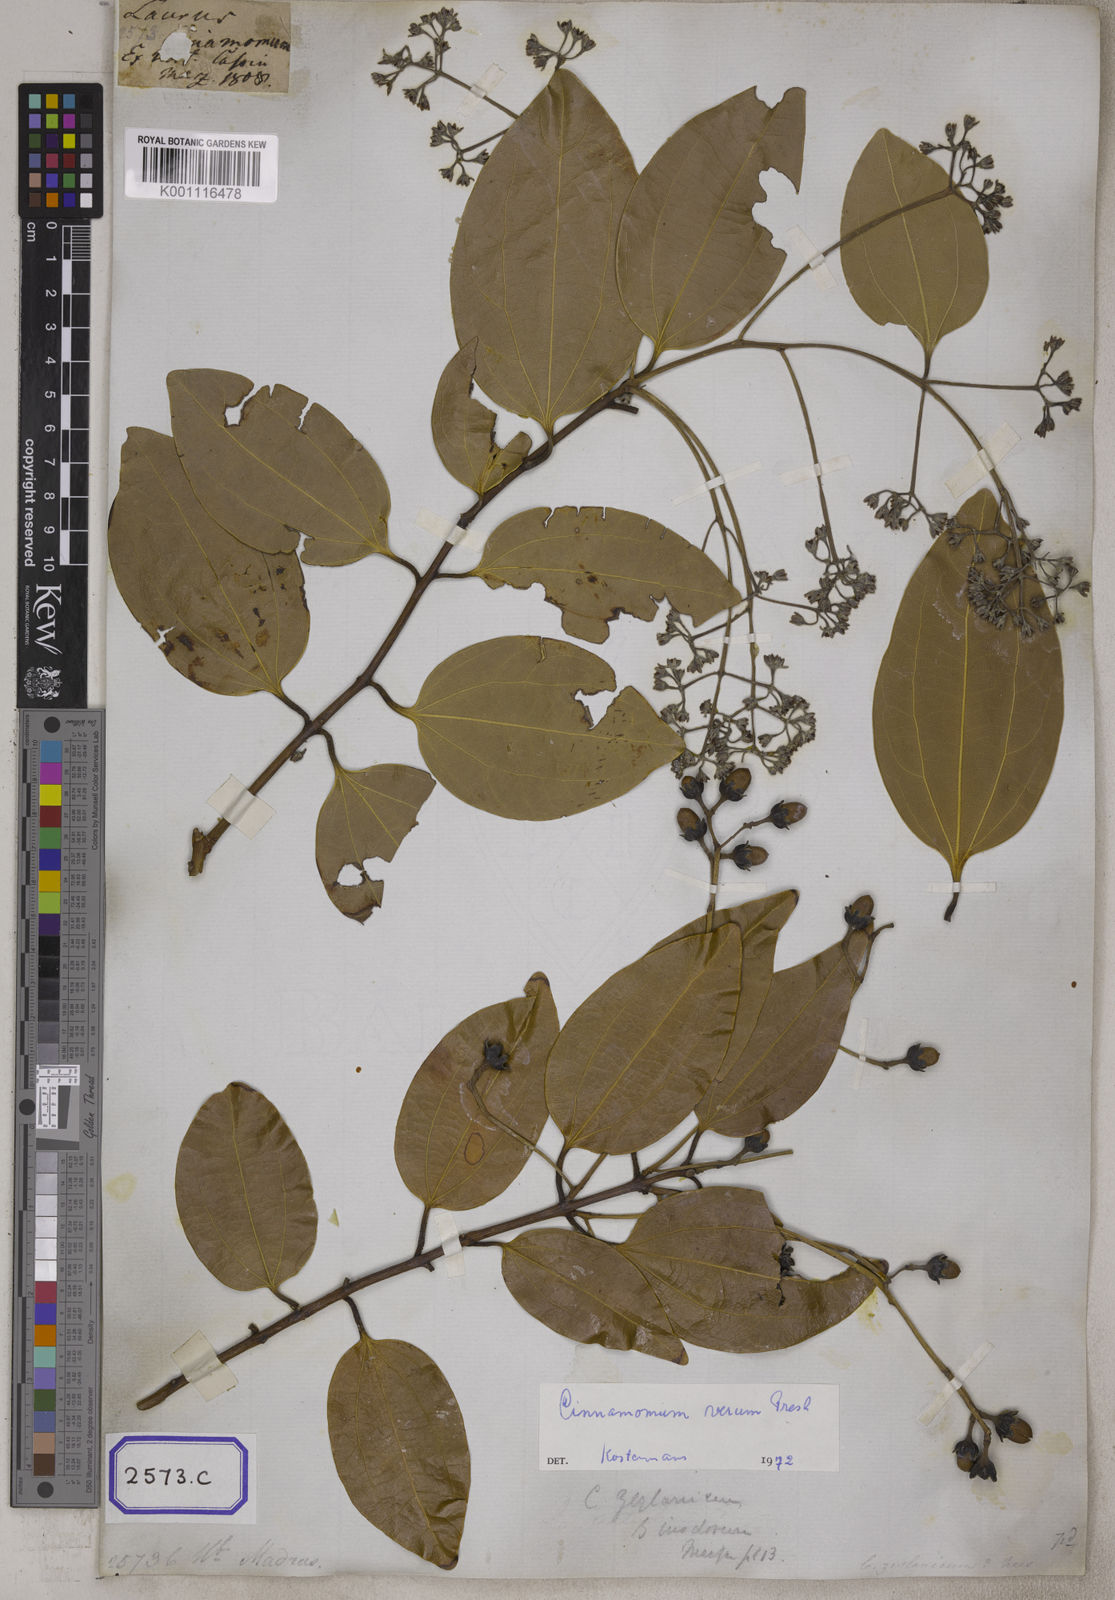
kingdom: Plantae
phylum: Tracheophyta
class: Magnoliopsida
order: Laurales
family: Lauraceae
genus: Cinnamomum
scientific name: Cinnamomum verum
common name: Cinnamon
